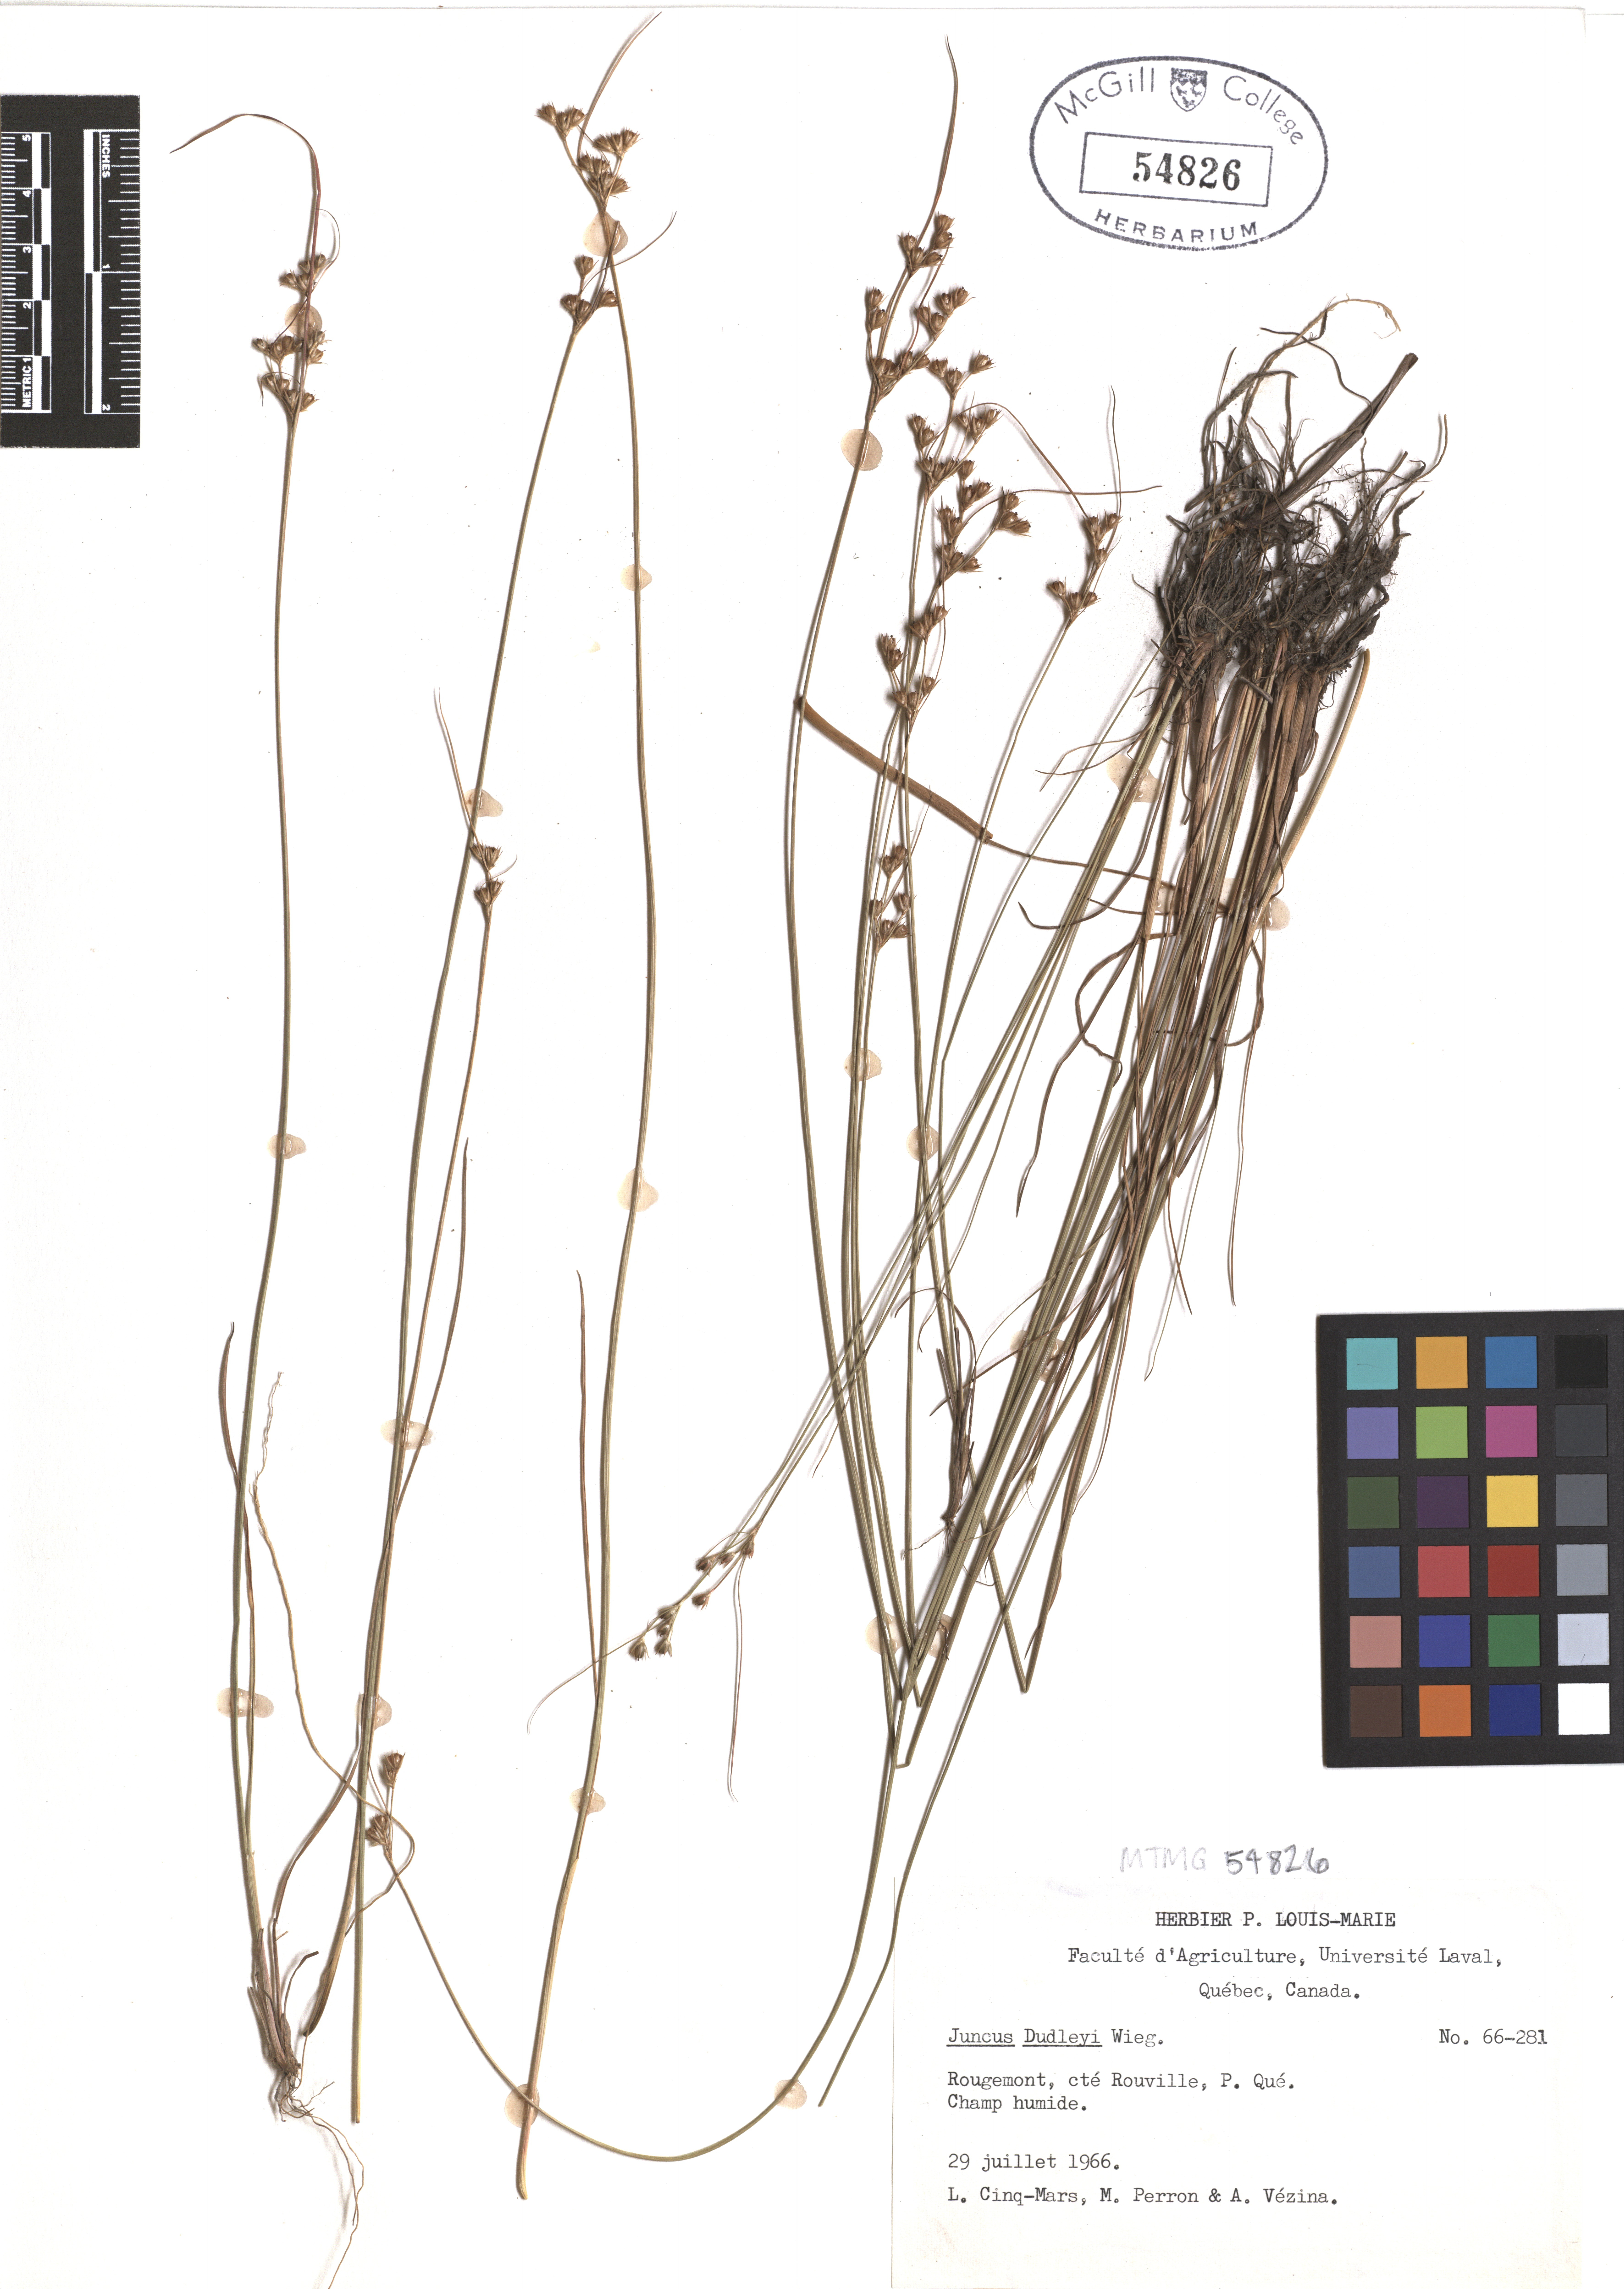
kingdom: Plantae
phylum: Tracheophyta
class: Liliopsida
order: Poales
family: Juncaceae
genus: Juncus
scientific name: Juncus dudleyi
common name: Dudley's rush
